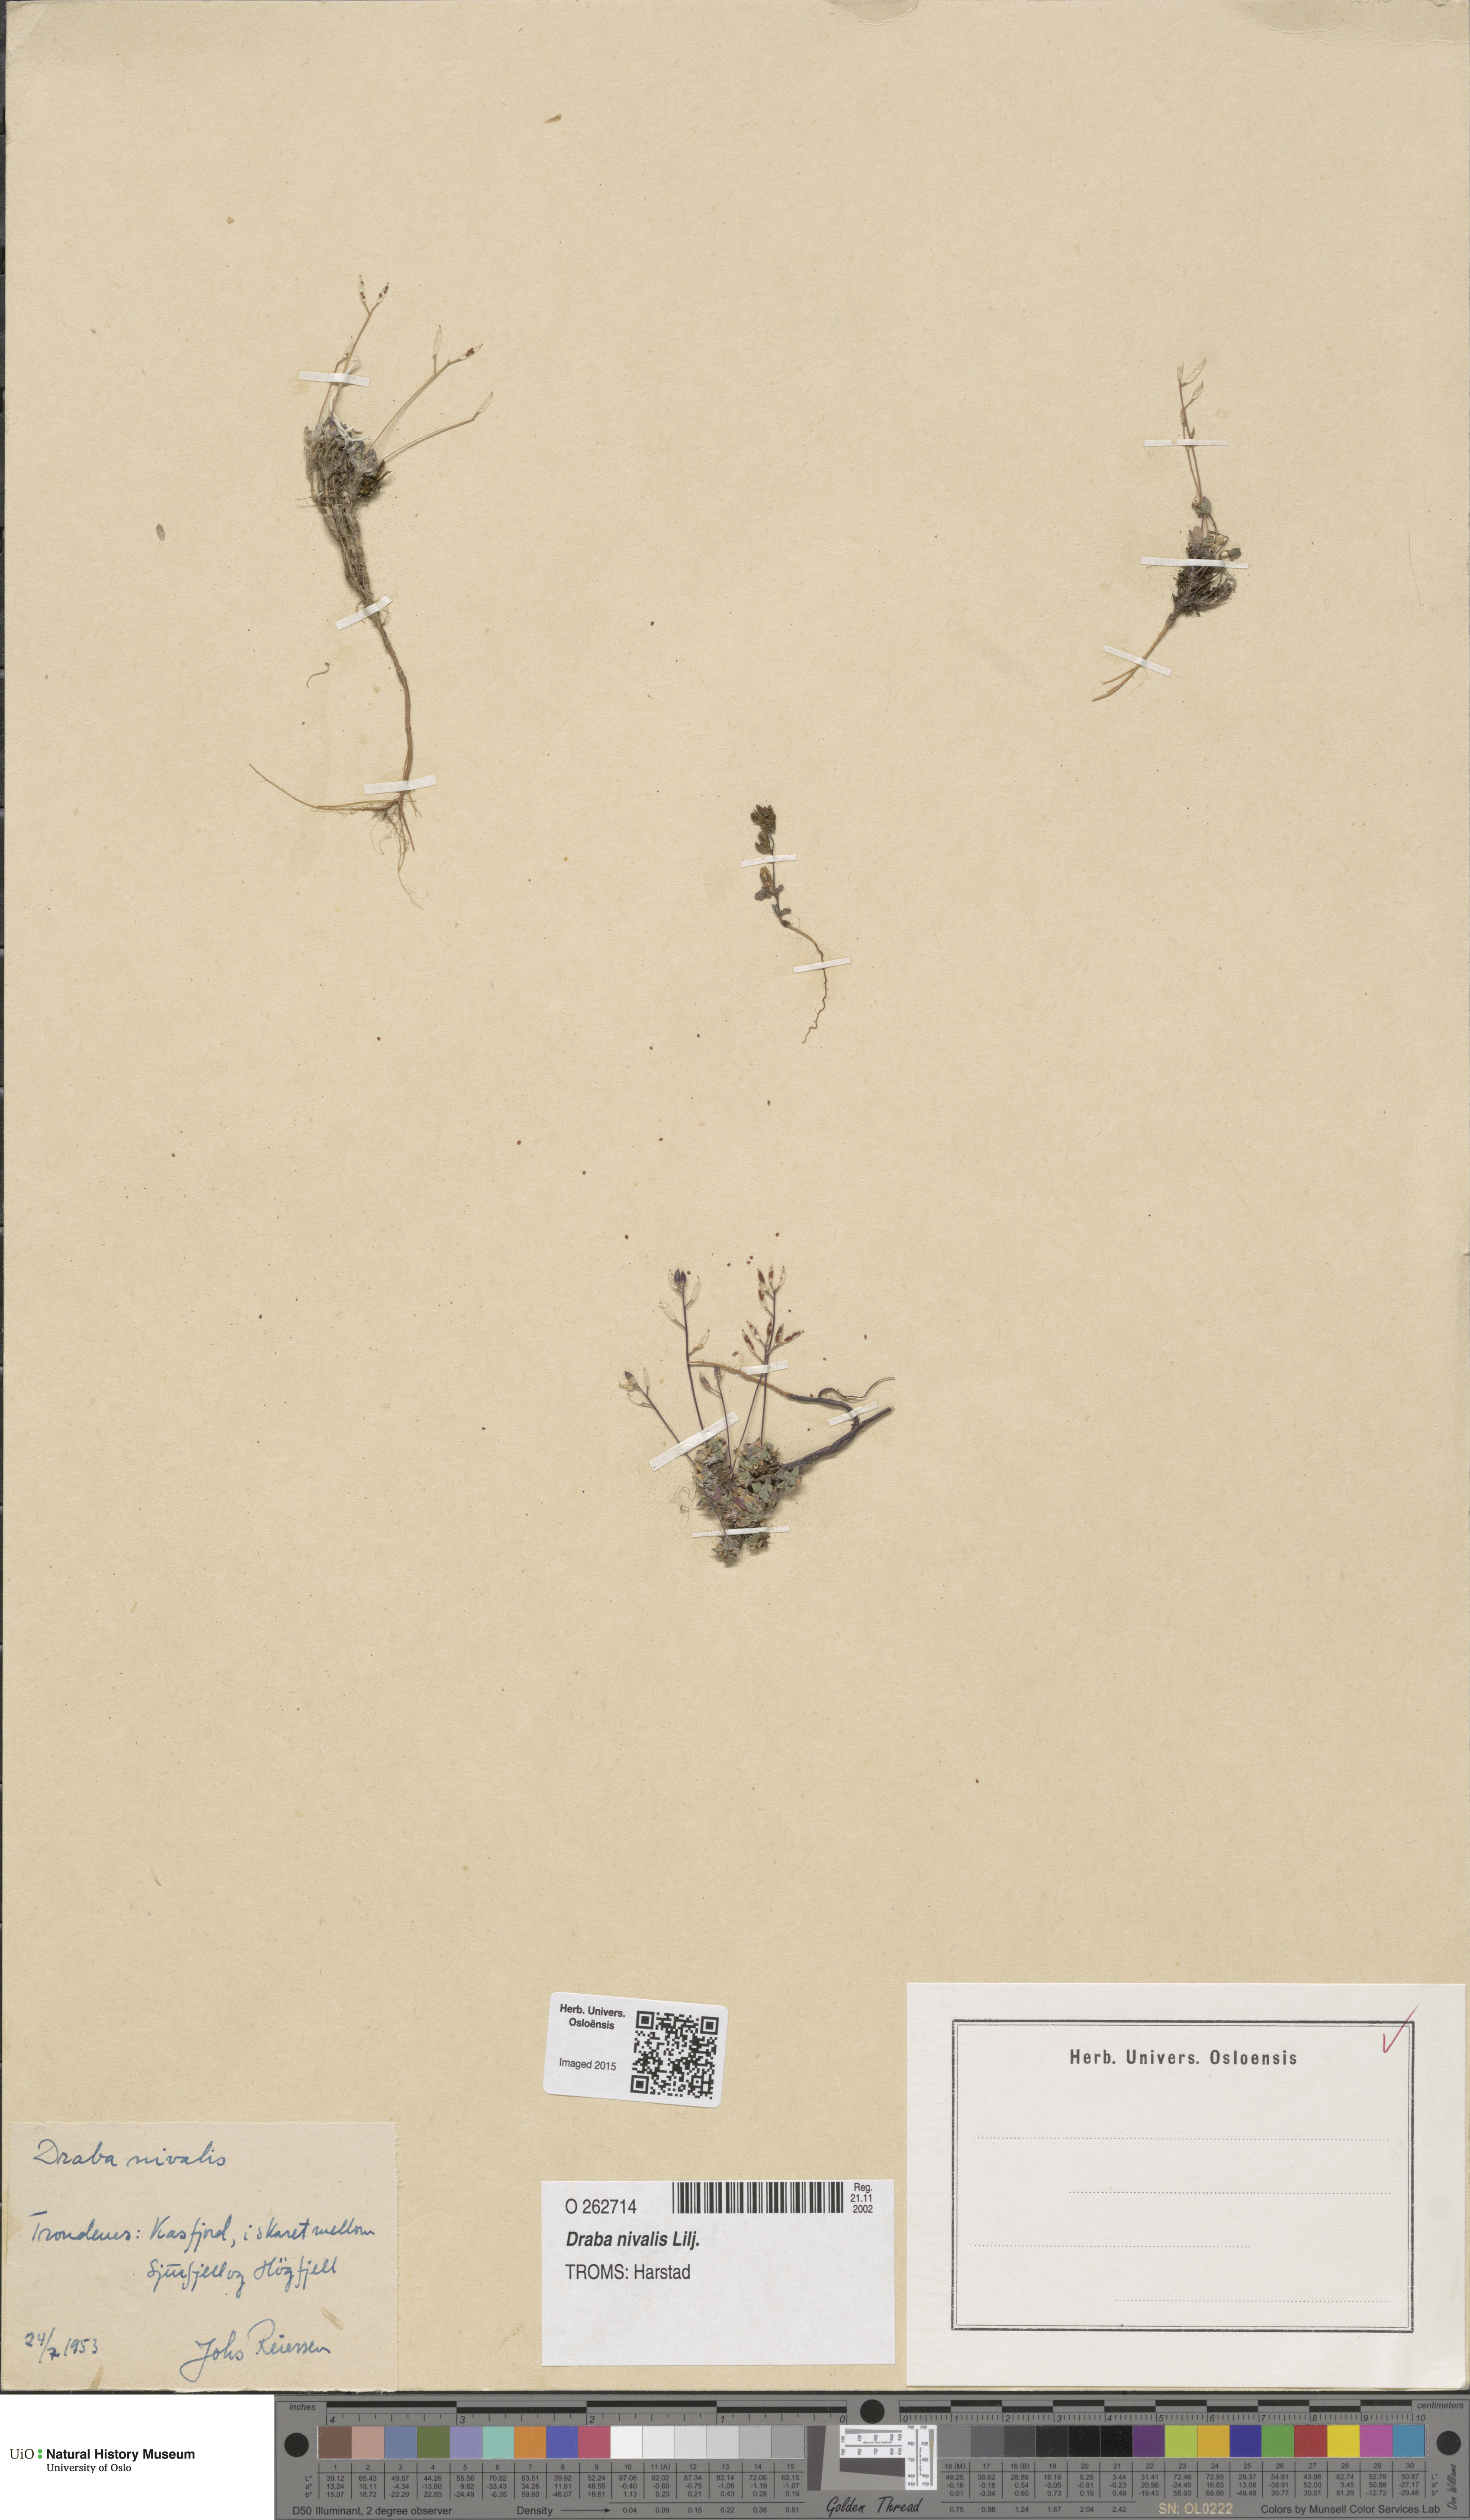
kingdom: Plantae
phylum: Tracheophyta
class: Magnoliopsida
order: Brassicales
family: Brassicaceae
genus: Draba
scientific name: Draba nivalis
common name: Snow draba
